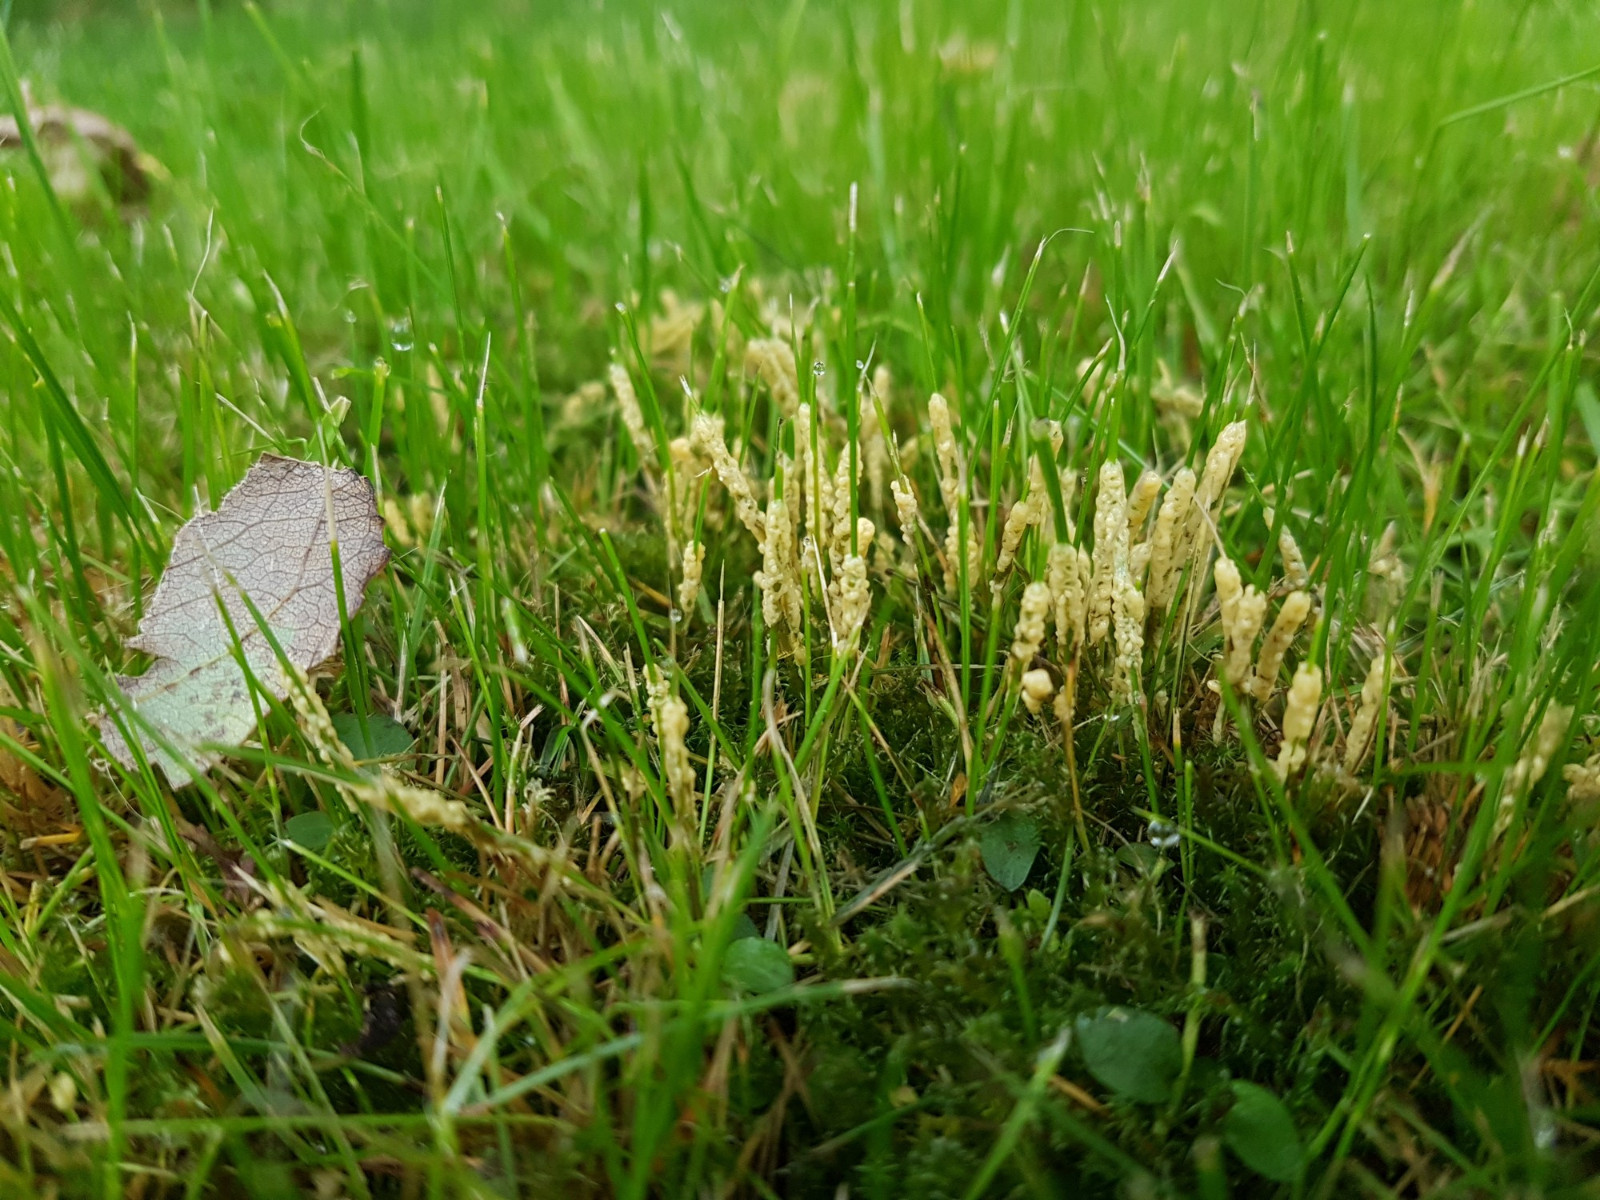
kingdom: Protozoa
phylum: Mycetozoa
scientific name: Mycetozoa
